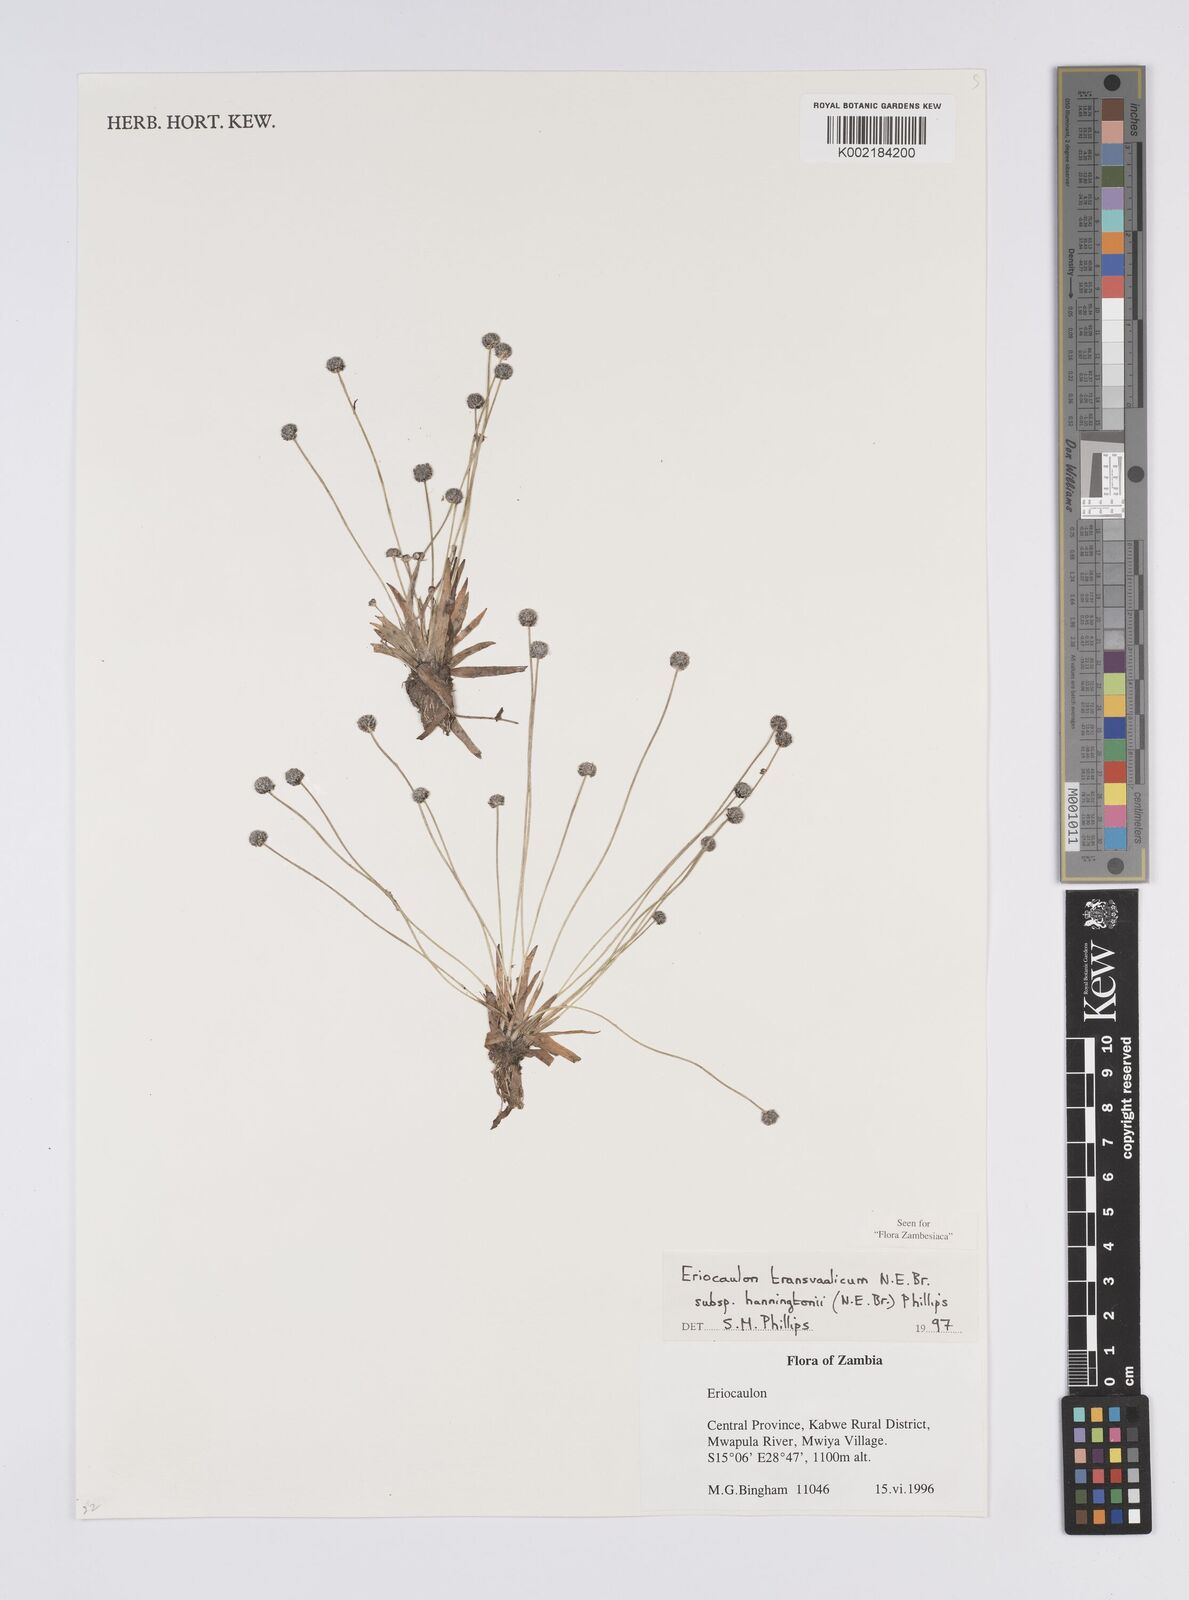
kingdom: Plantae
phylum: Tracheophyta
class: Liliopsida
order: Poales
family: Eriocaulaceae
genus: Eriocaulon
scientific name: Eriocaulon transvaalicum
